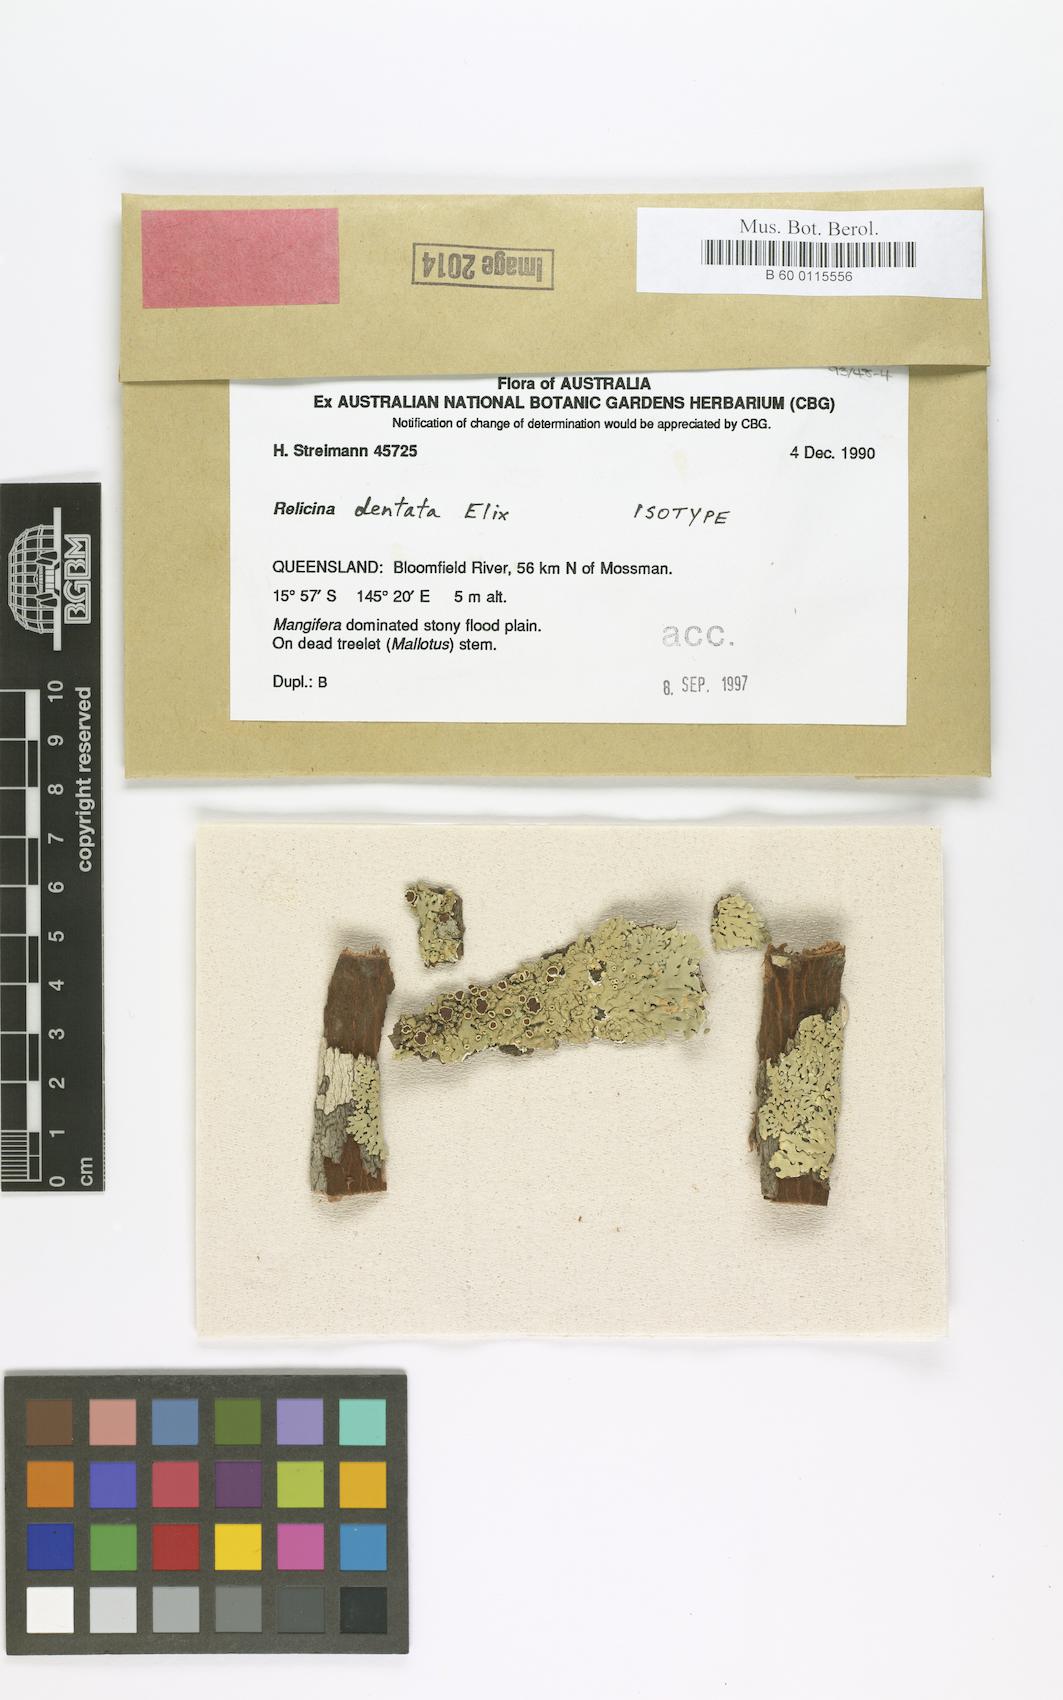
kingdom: Fungi
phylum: Ascomycota
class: Lecanoromycetes
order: Lecanorales
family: Parmeliaceae
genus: Relicina
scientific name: Relicina dentata
